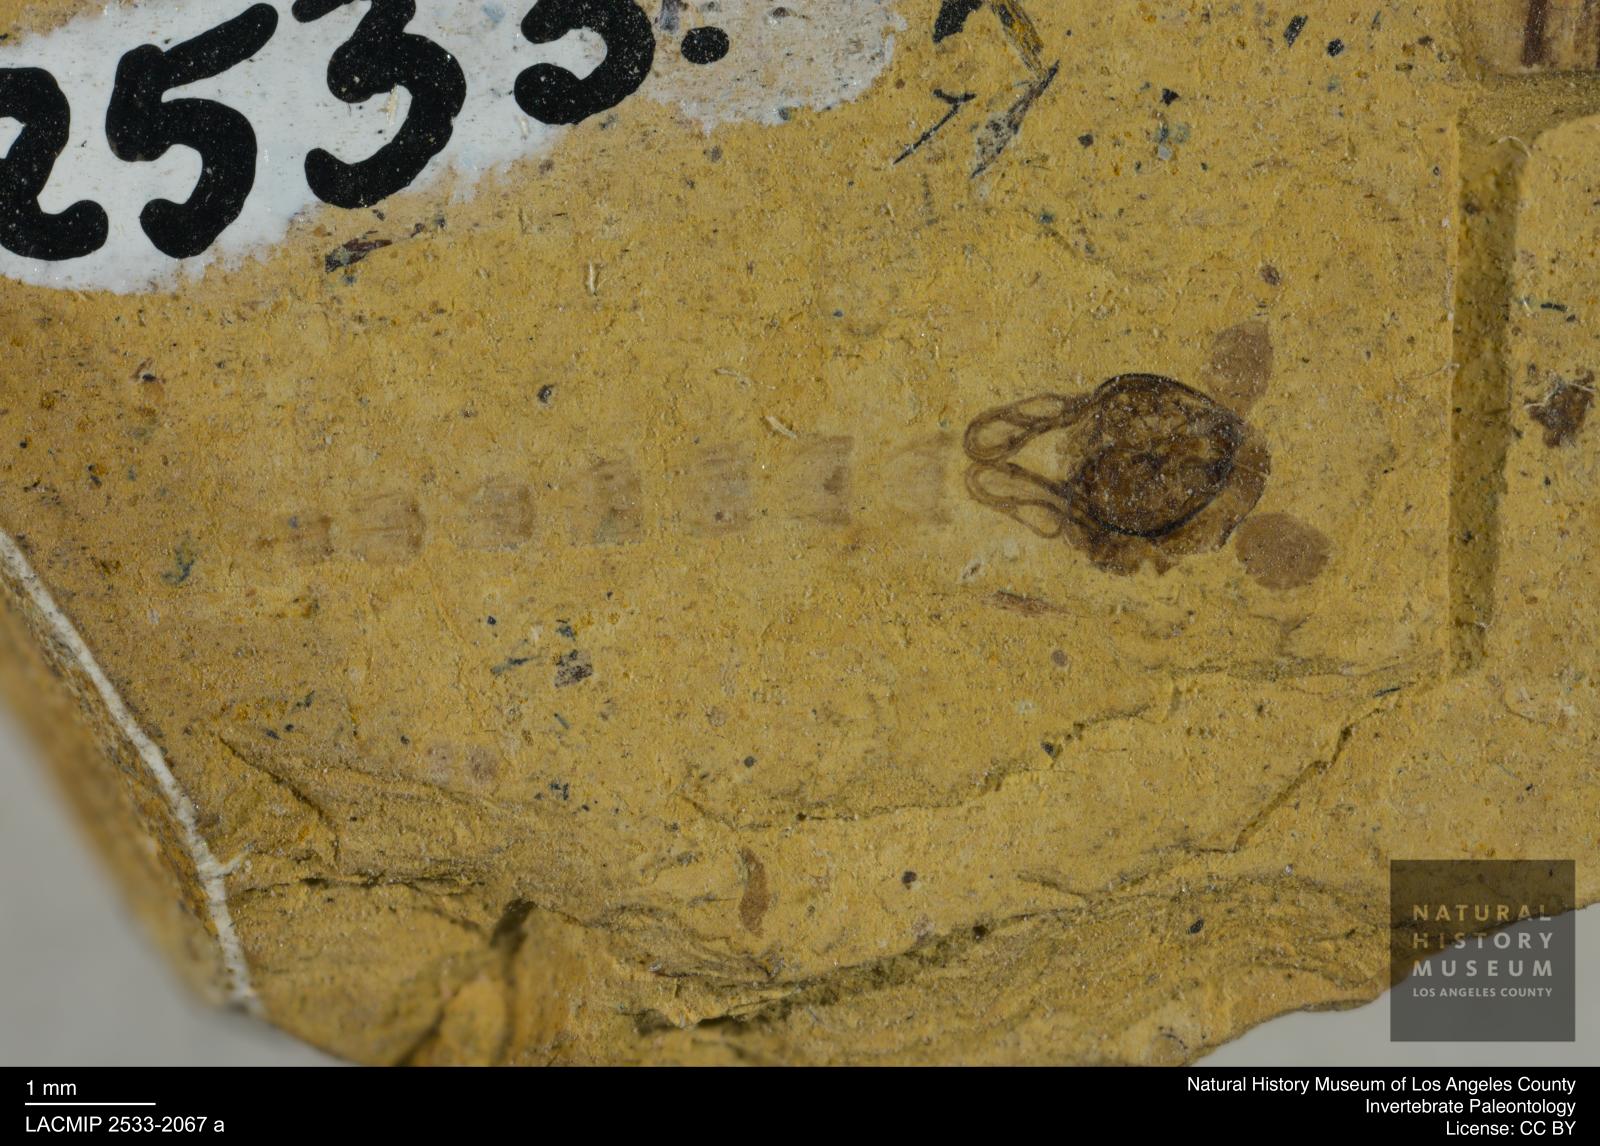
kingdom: Animalia
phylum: Arthropoda
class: Insecta
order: Diptera
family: Chironomidae
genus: Pelopiina
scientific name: Pelopiina
